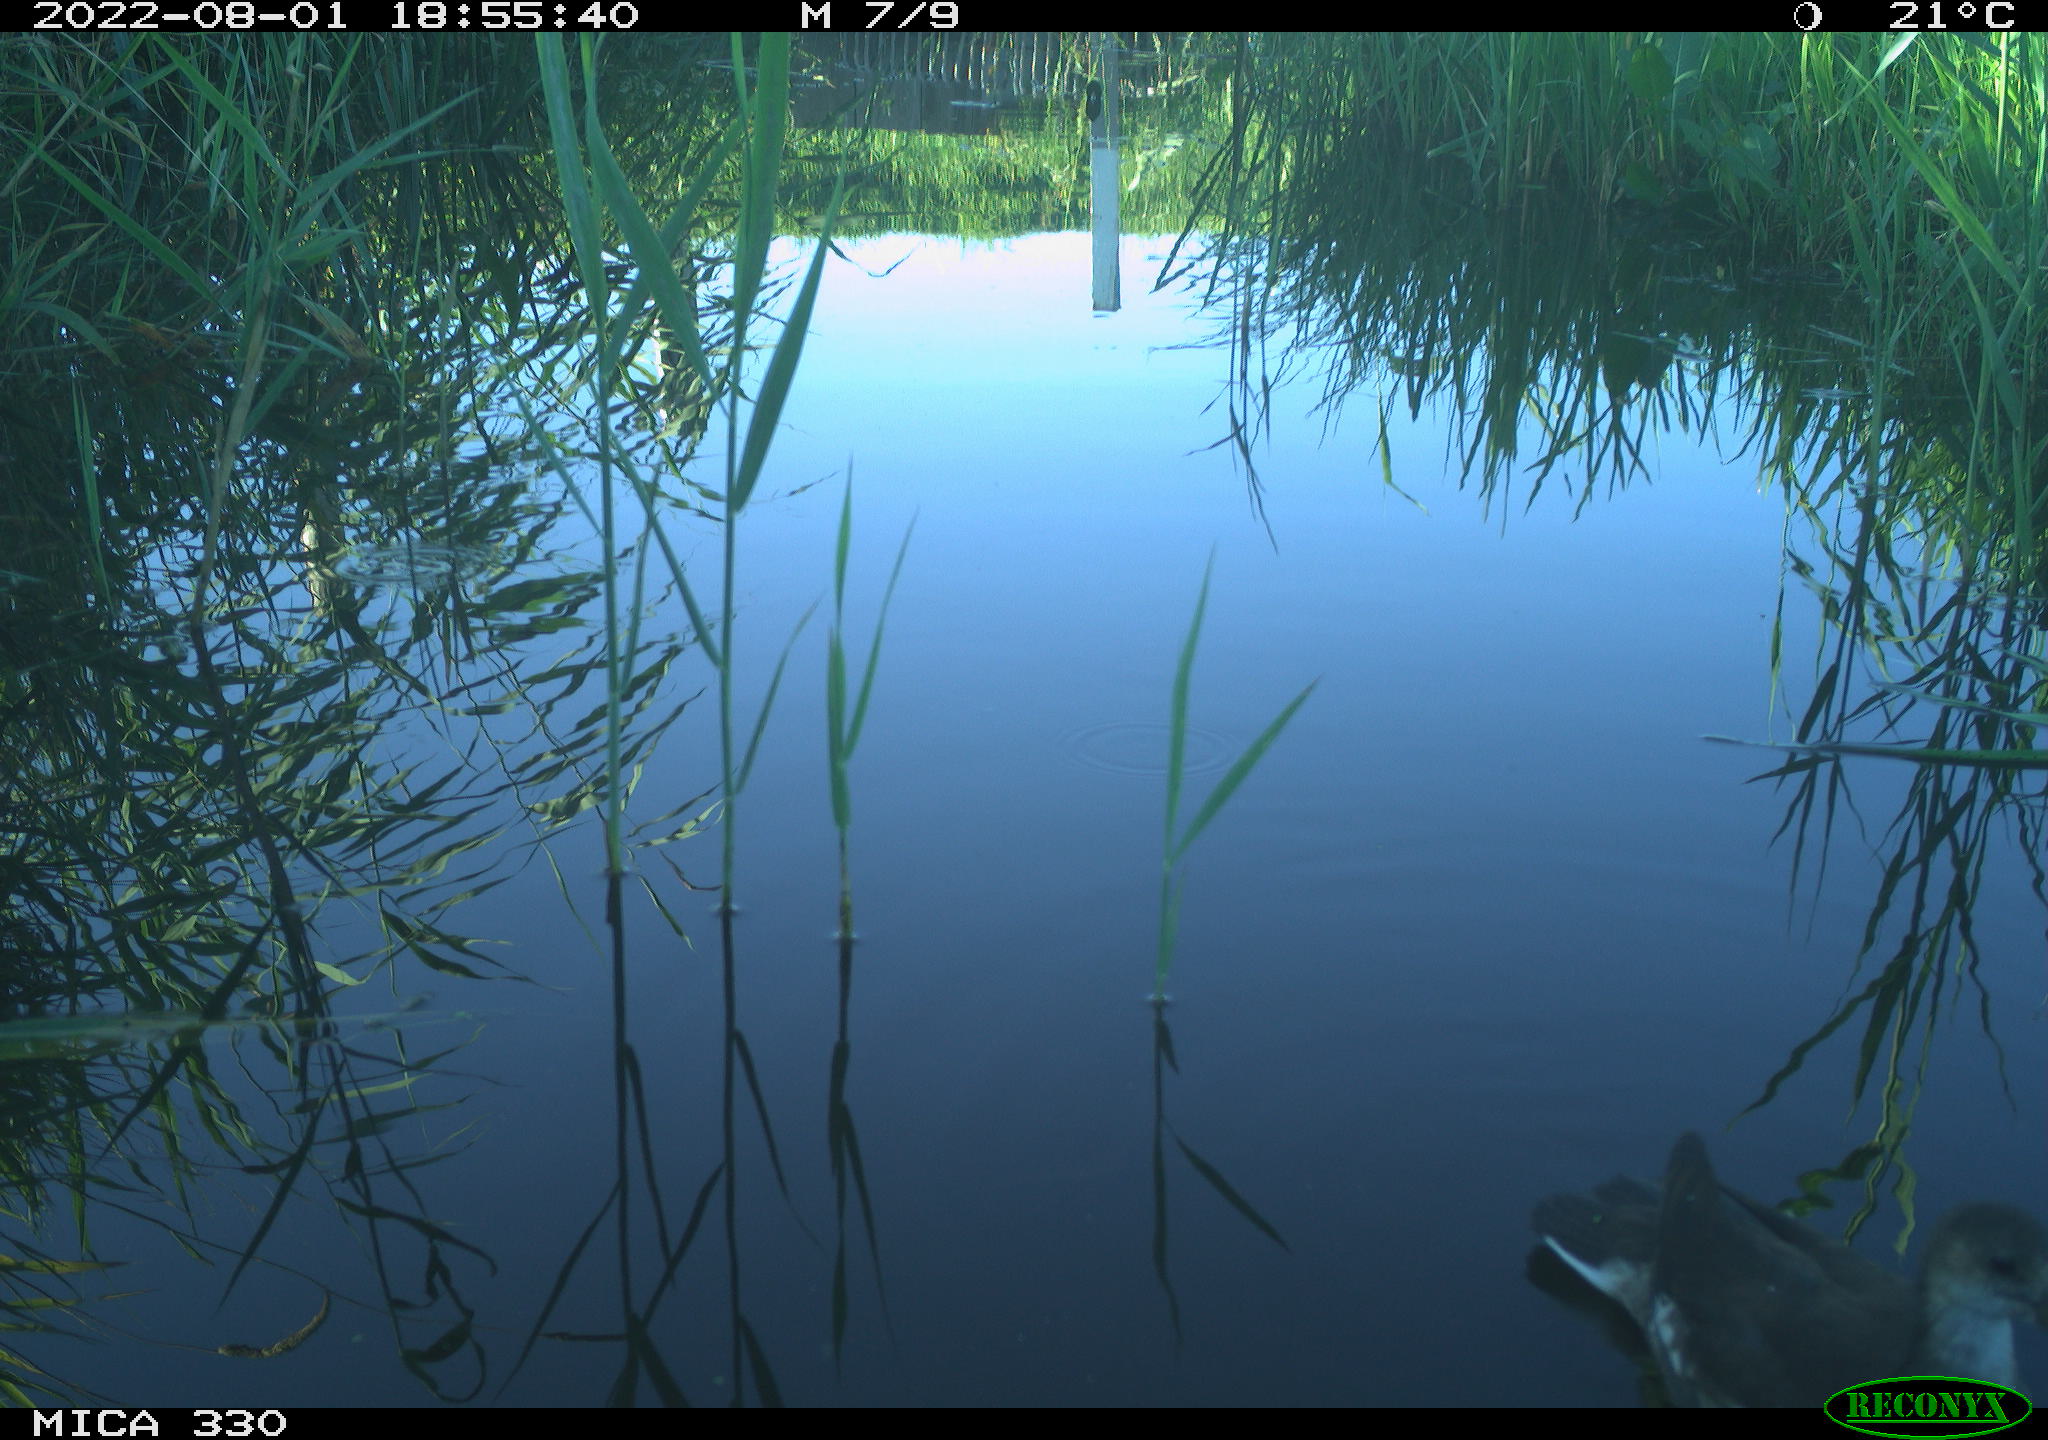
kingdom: Animalia
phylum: Chordata
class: Aves
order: Gruiformes
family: Rallidae
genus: Gallinula
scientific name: Gallinula chloropus
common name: Common moorhen
